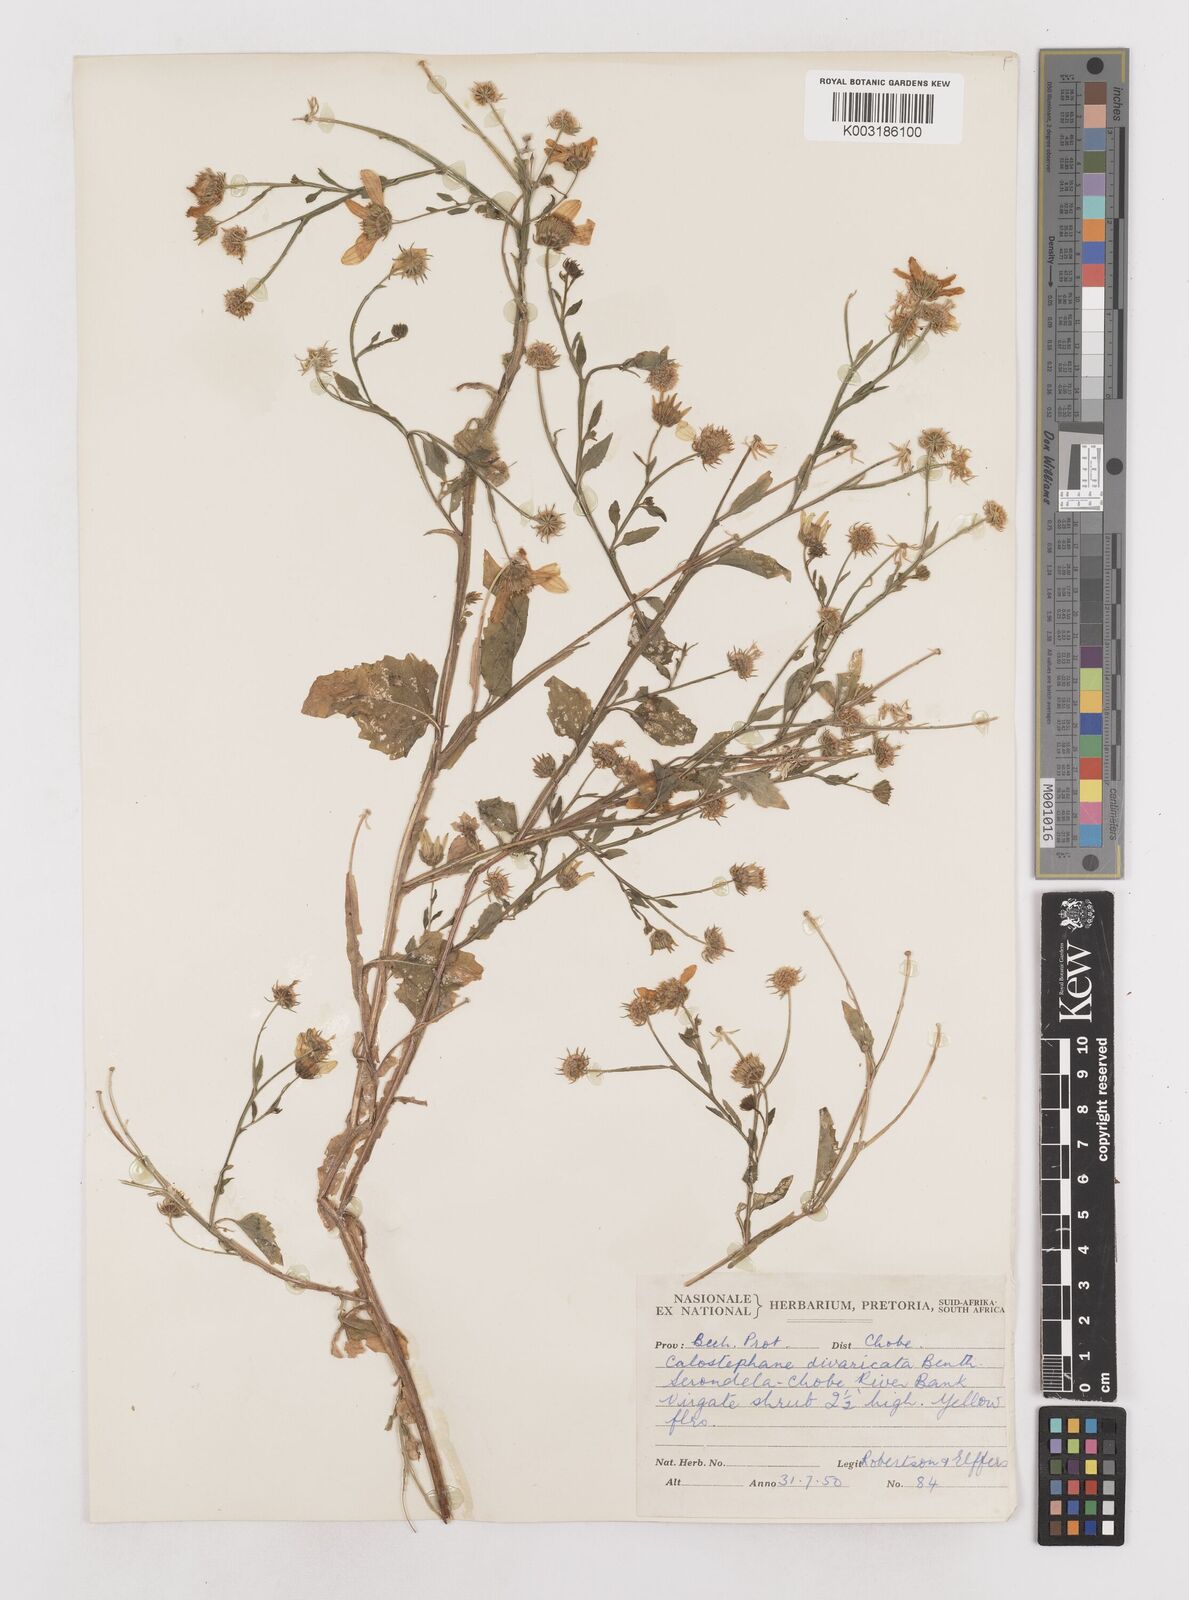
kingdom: Plantae
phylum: Tracheophyta
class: Magnoliopsida
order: Asterales
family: Asteraceae
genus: Calostephane
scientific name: Calostephane divaricata
